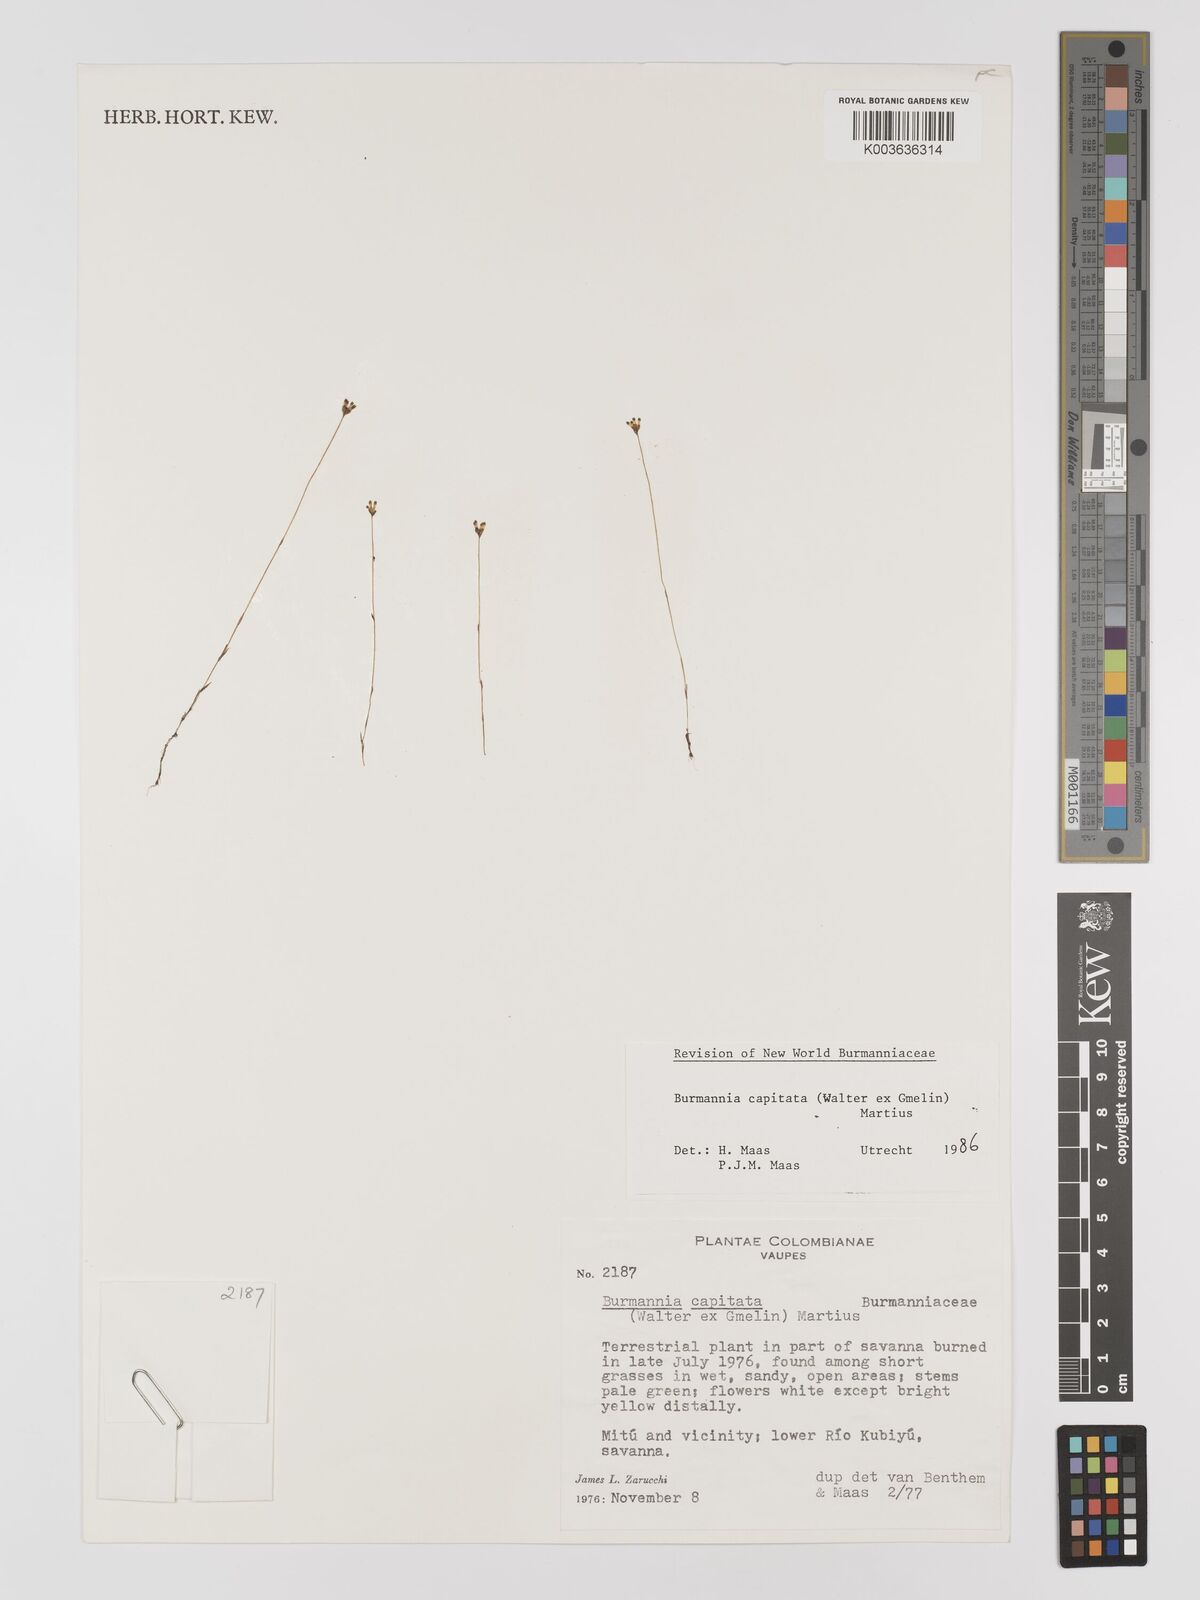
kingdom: Plantae
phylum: Tracheophyta
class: Liliopsida
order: Dioscoreales
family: Burmanniaceae
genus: Burmannia
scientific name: Burmannia capitata
